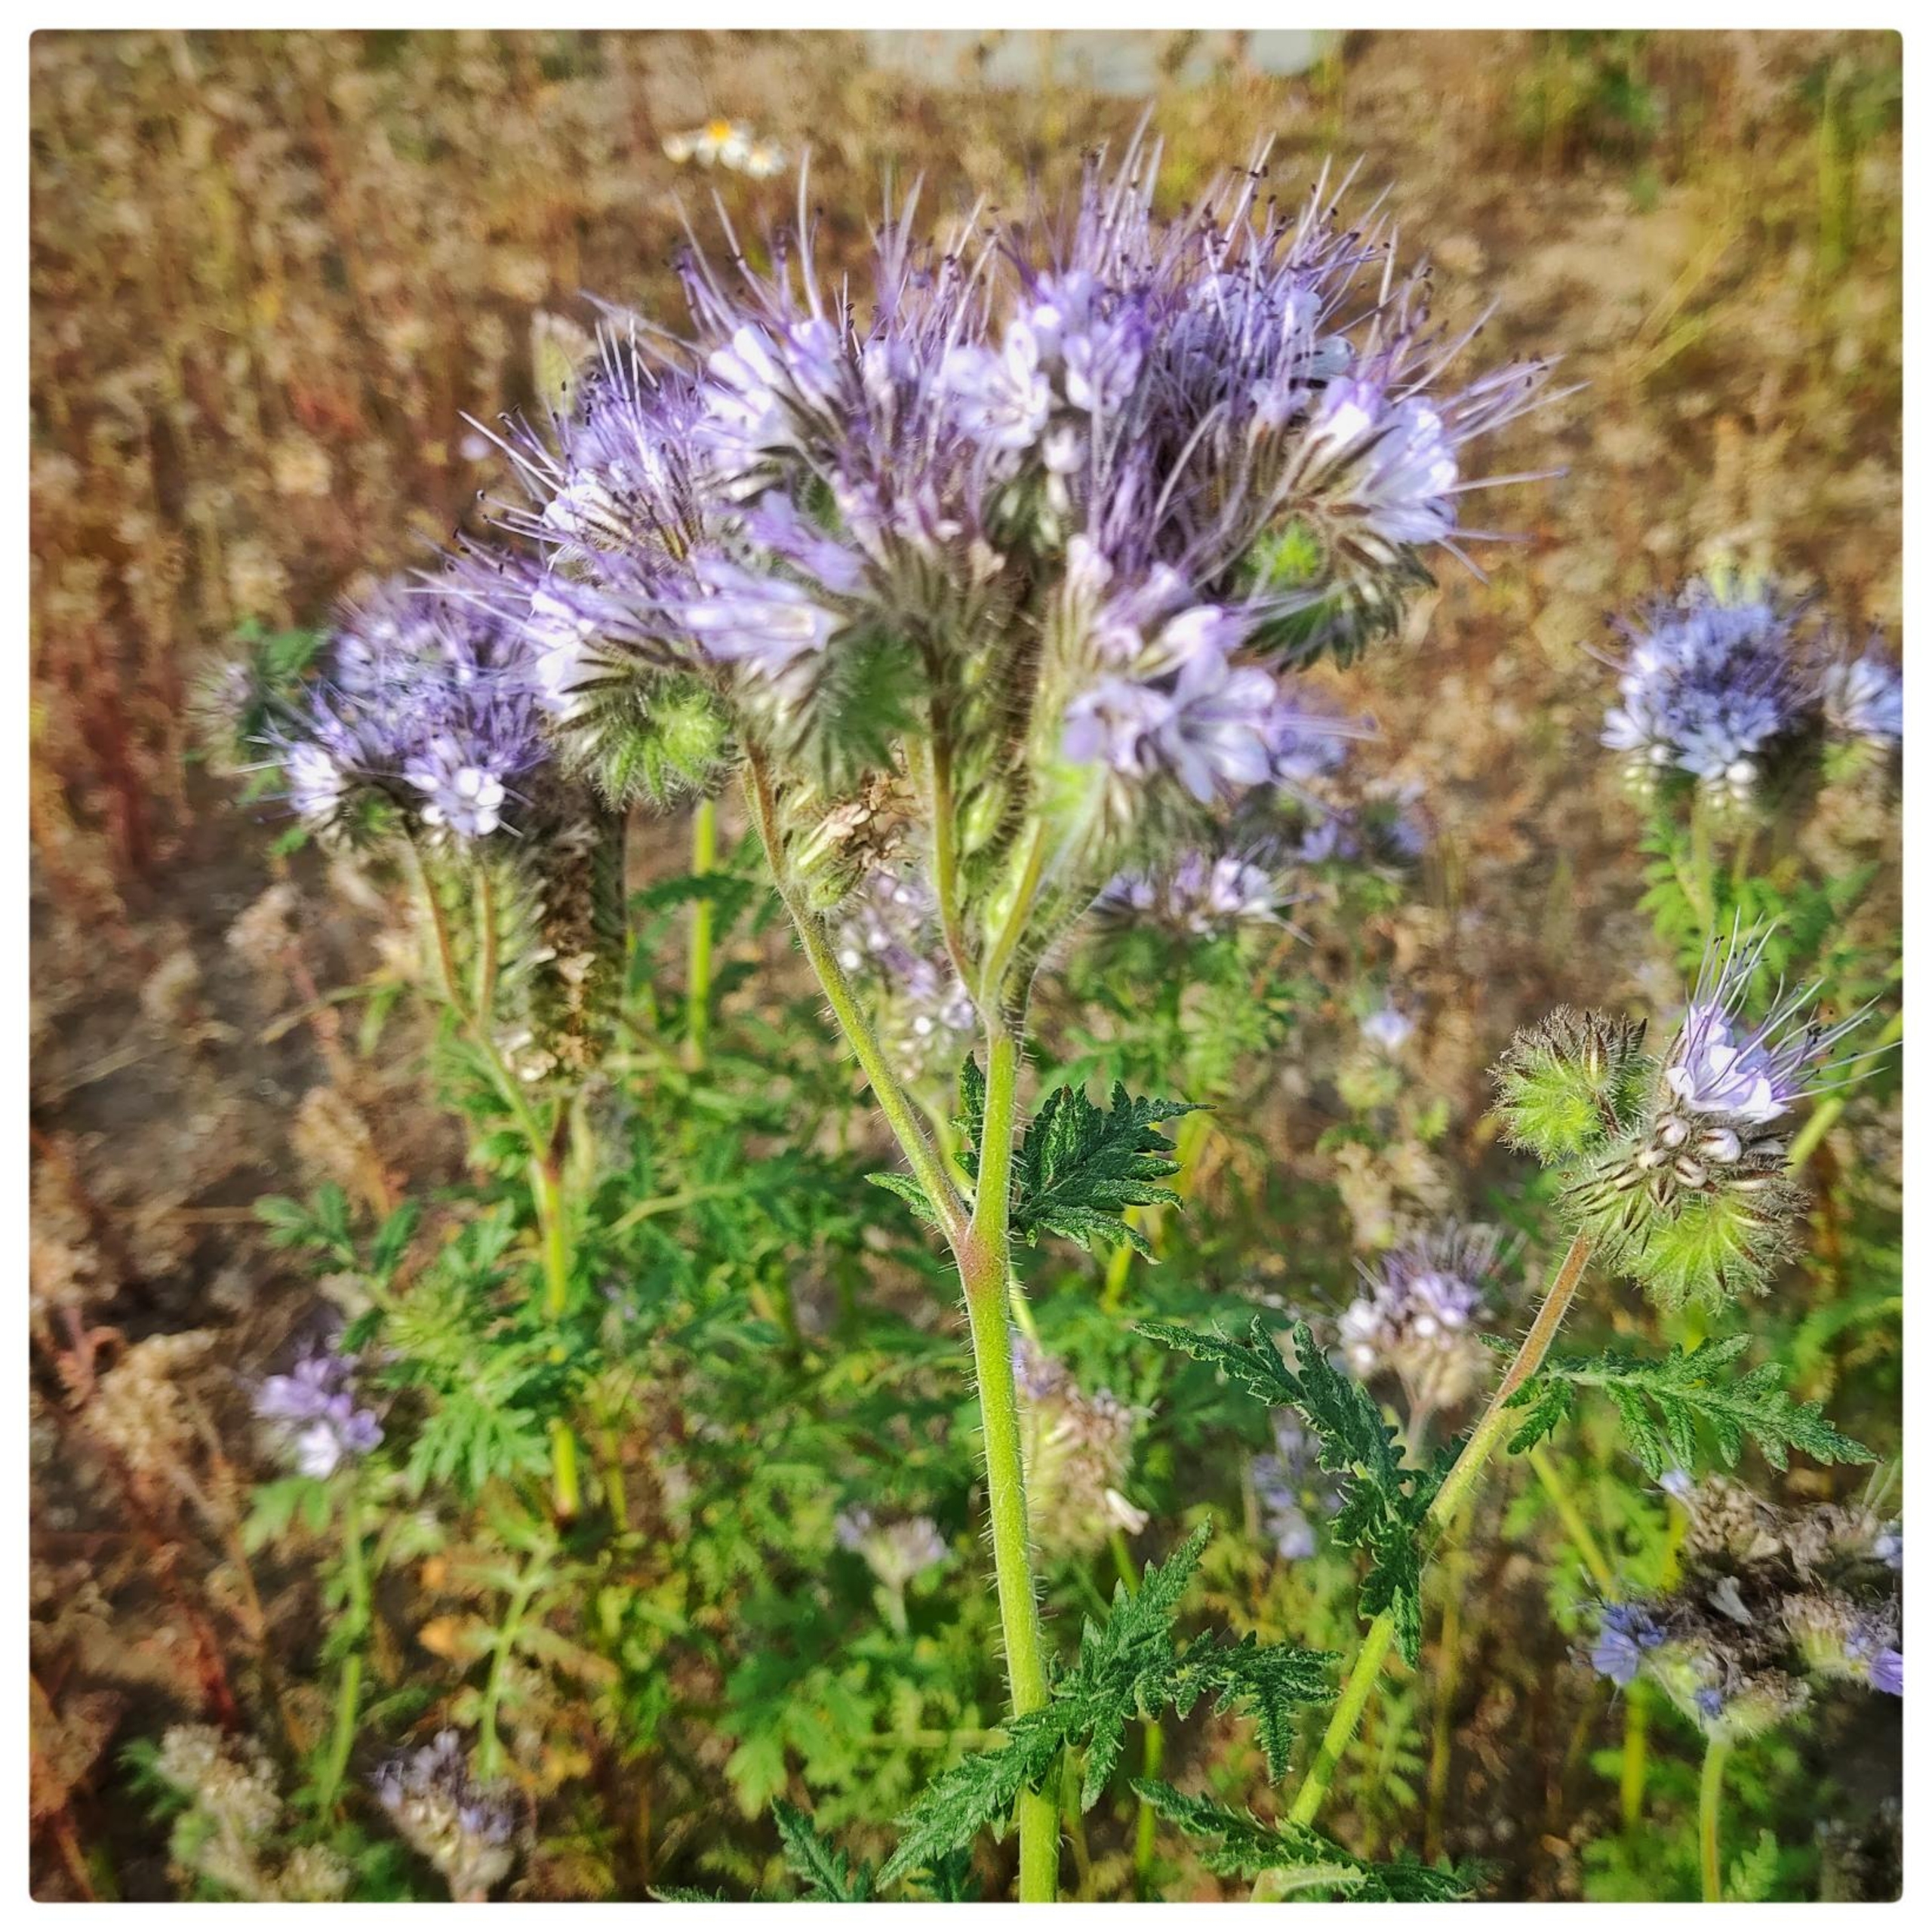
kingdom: Plantae
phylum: Tracheophyta
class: Magnoliopsida
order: Boraginales
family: Hydrophyllaceae
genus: Phacelia
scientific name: Phacelia tanacetifolia
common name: Honningurt
